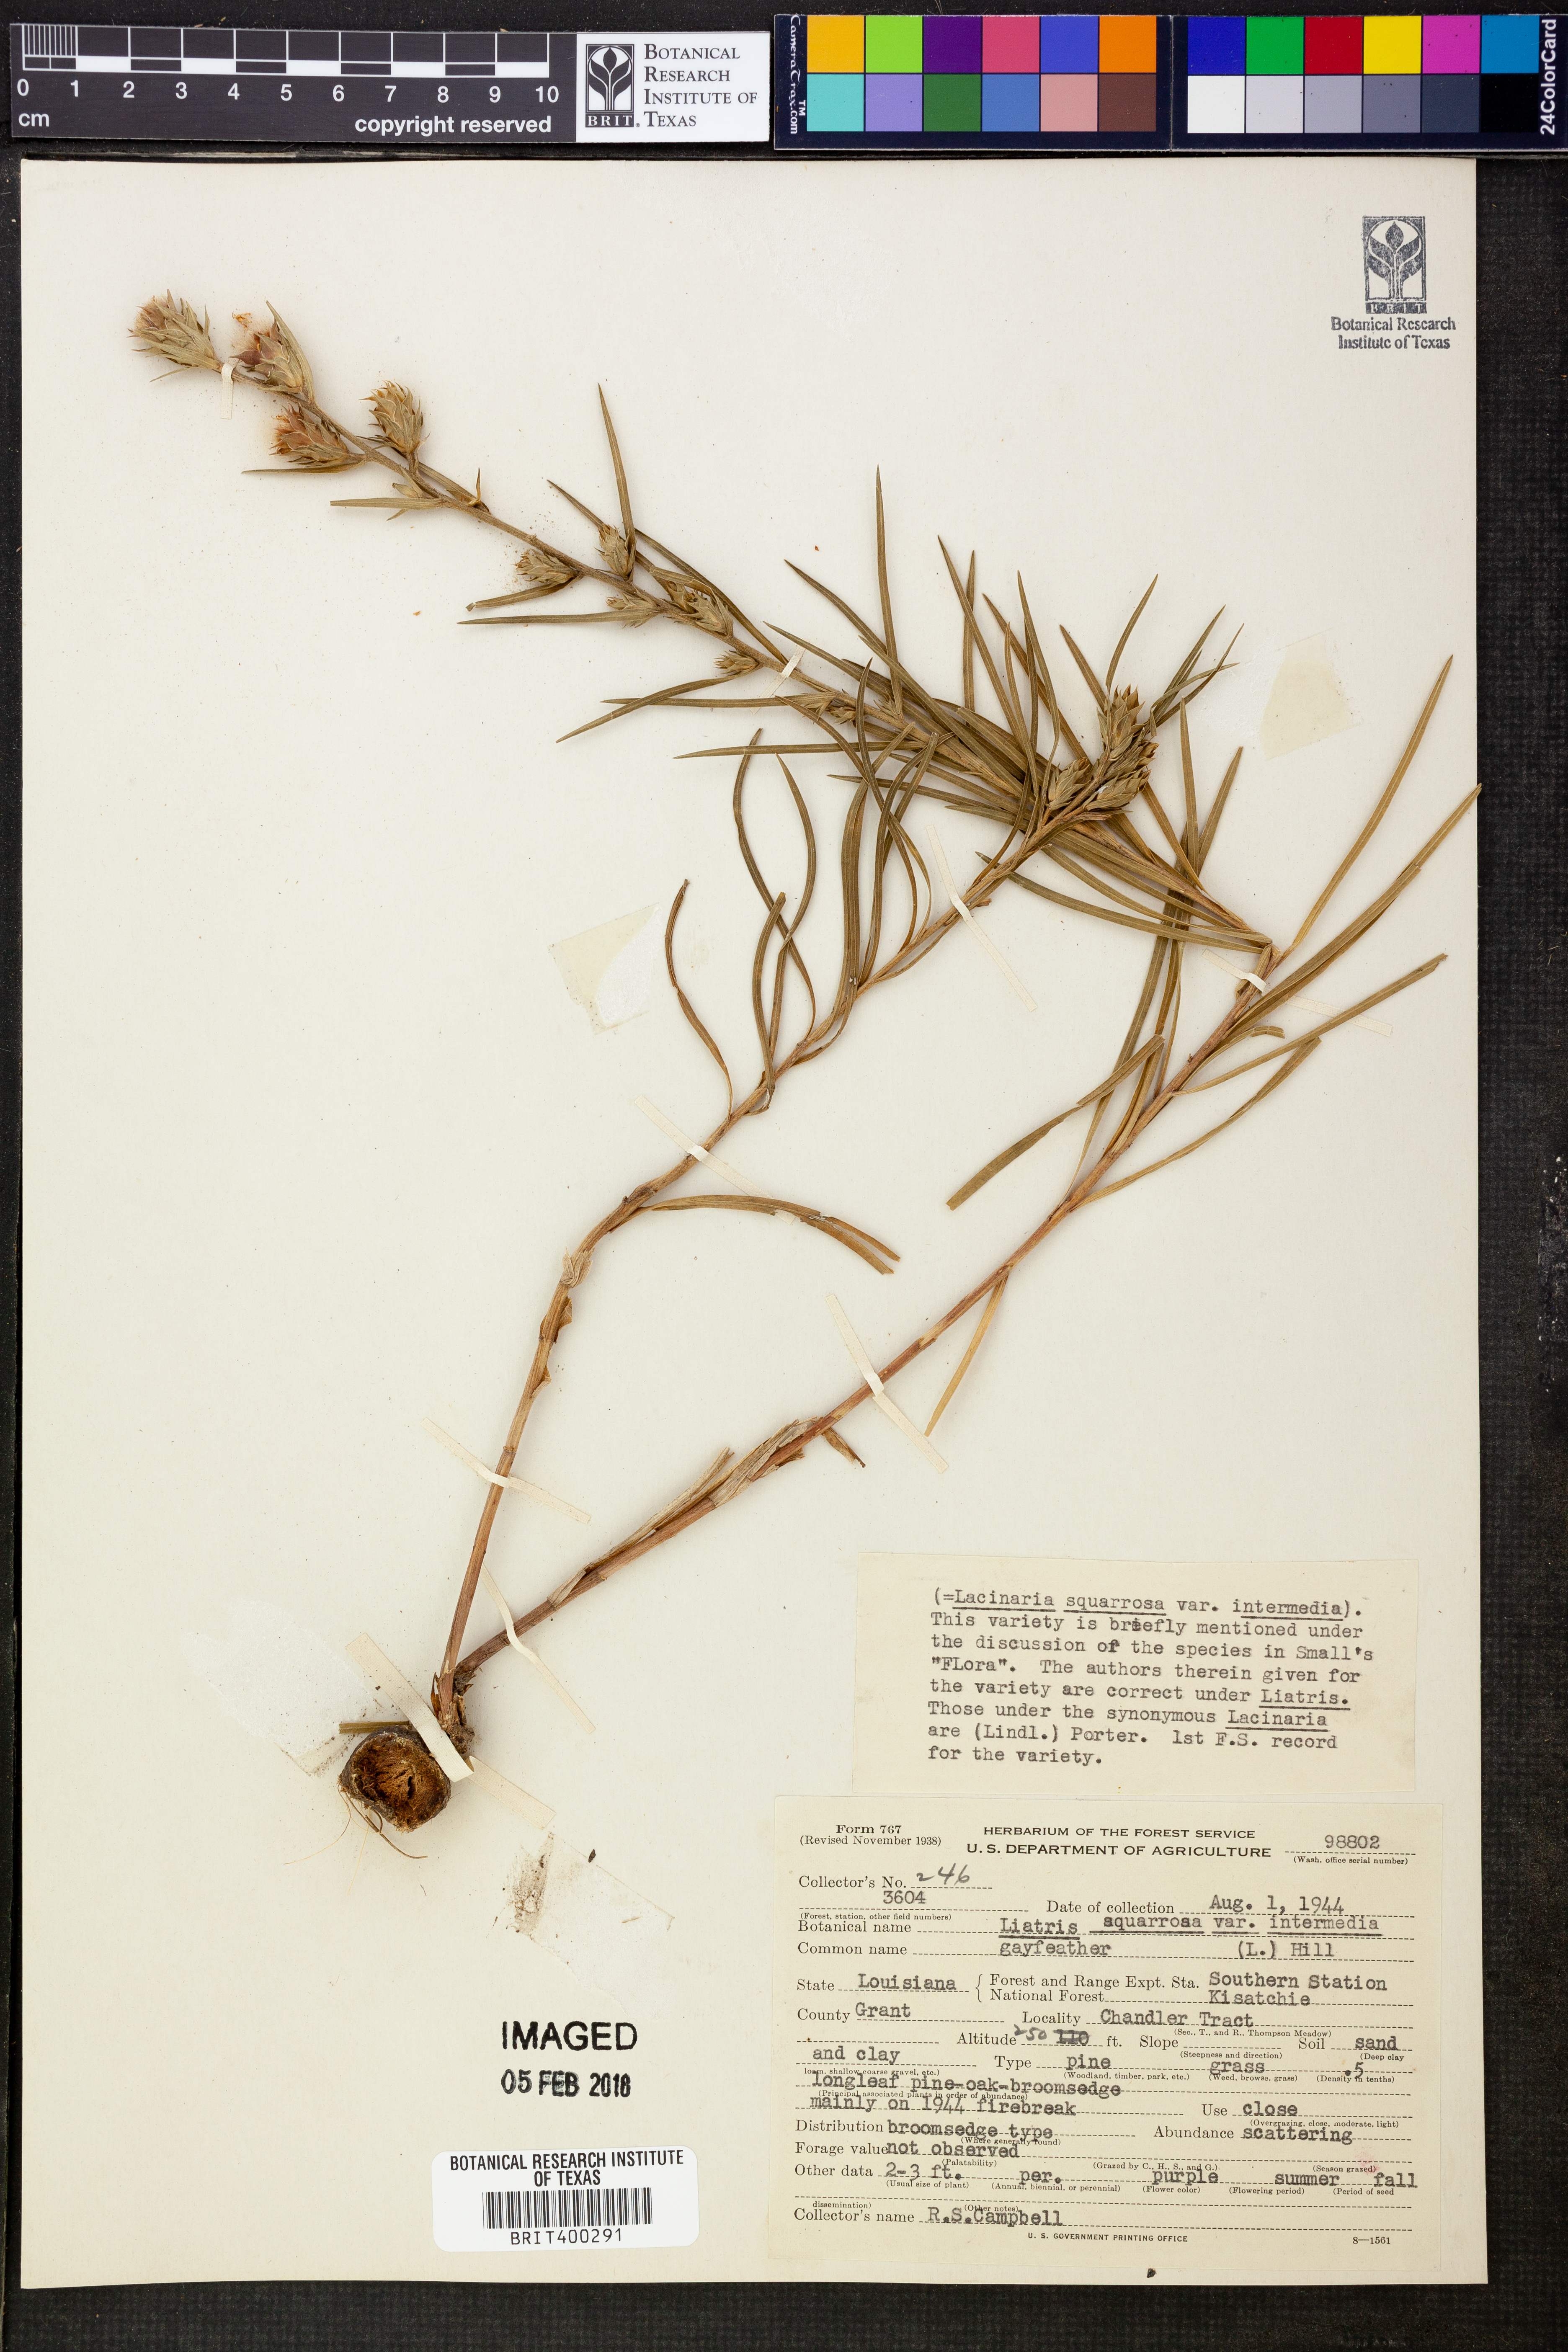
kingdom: Plantae
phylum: Tracheophyta
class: Magnoliopsida
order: Asterales
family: Asteraceae
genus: Liatris
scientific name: Liatris cylindracea
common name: Few-head blazingstar
